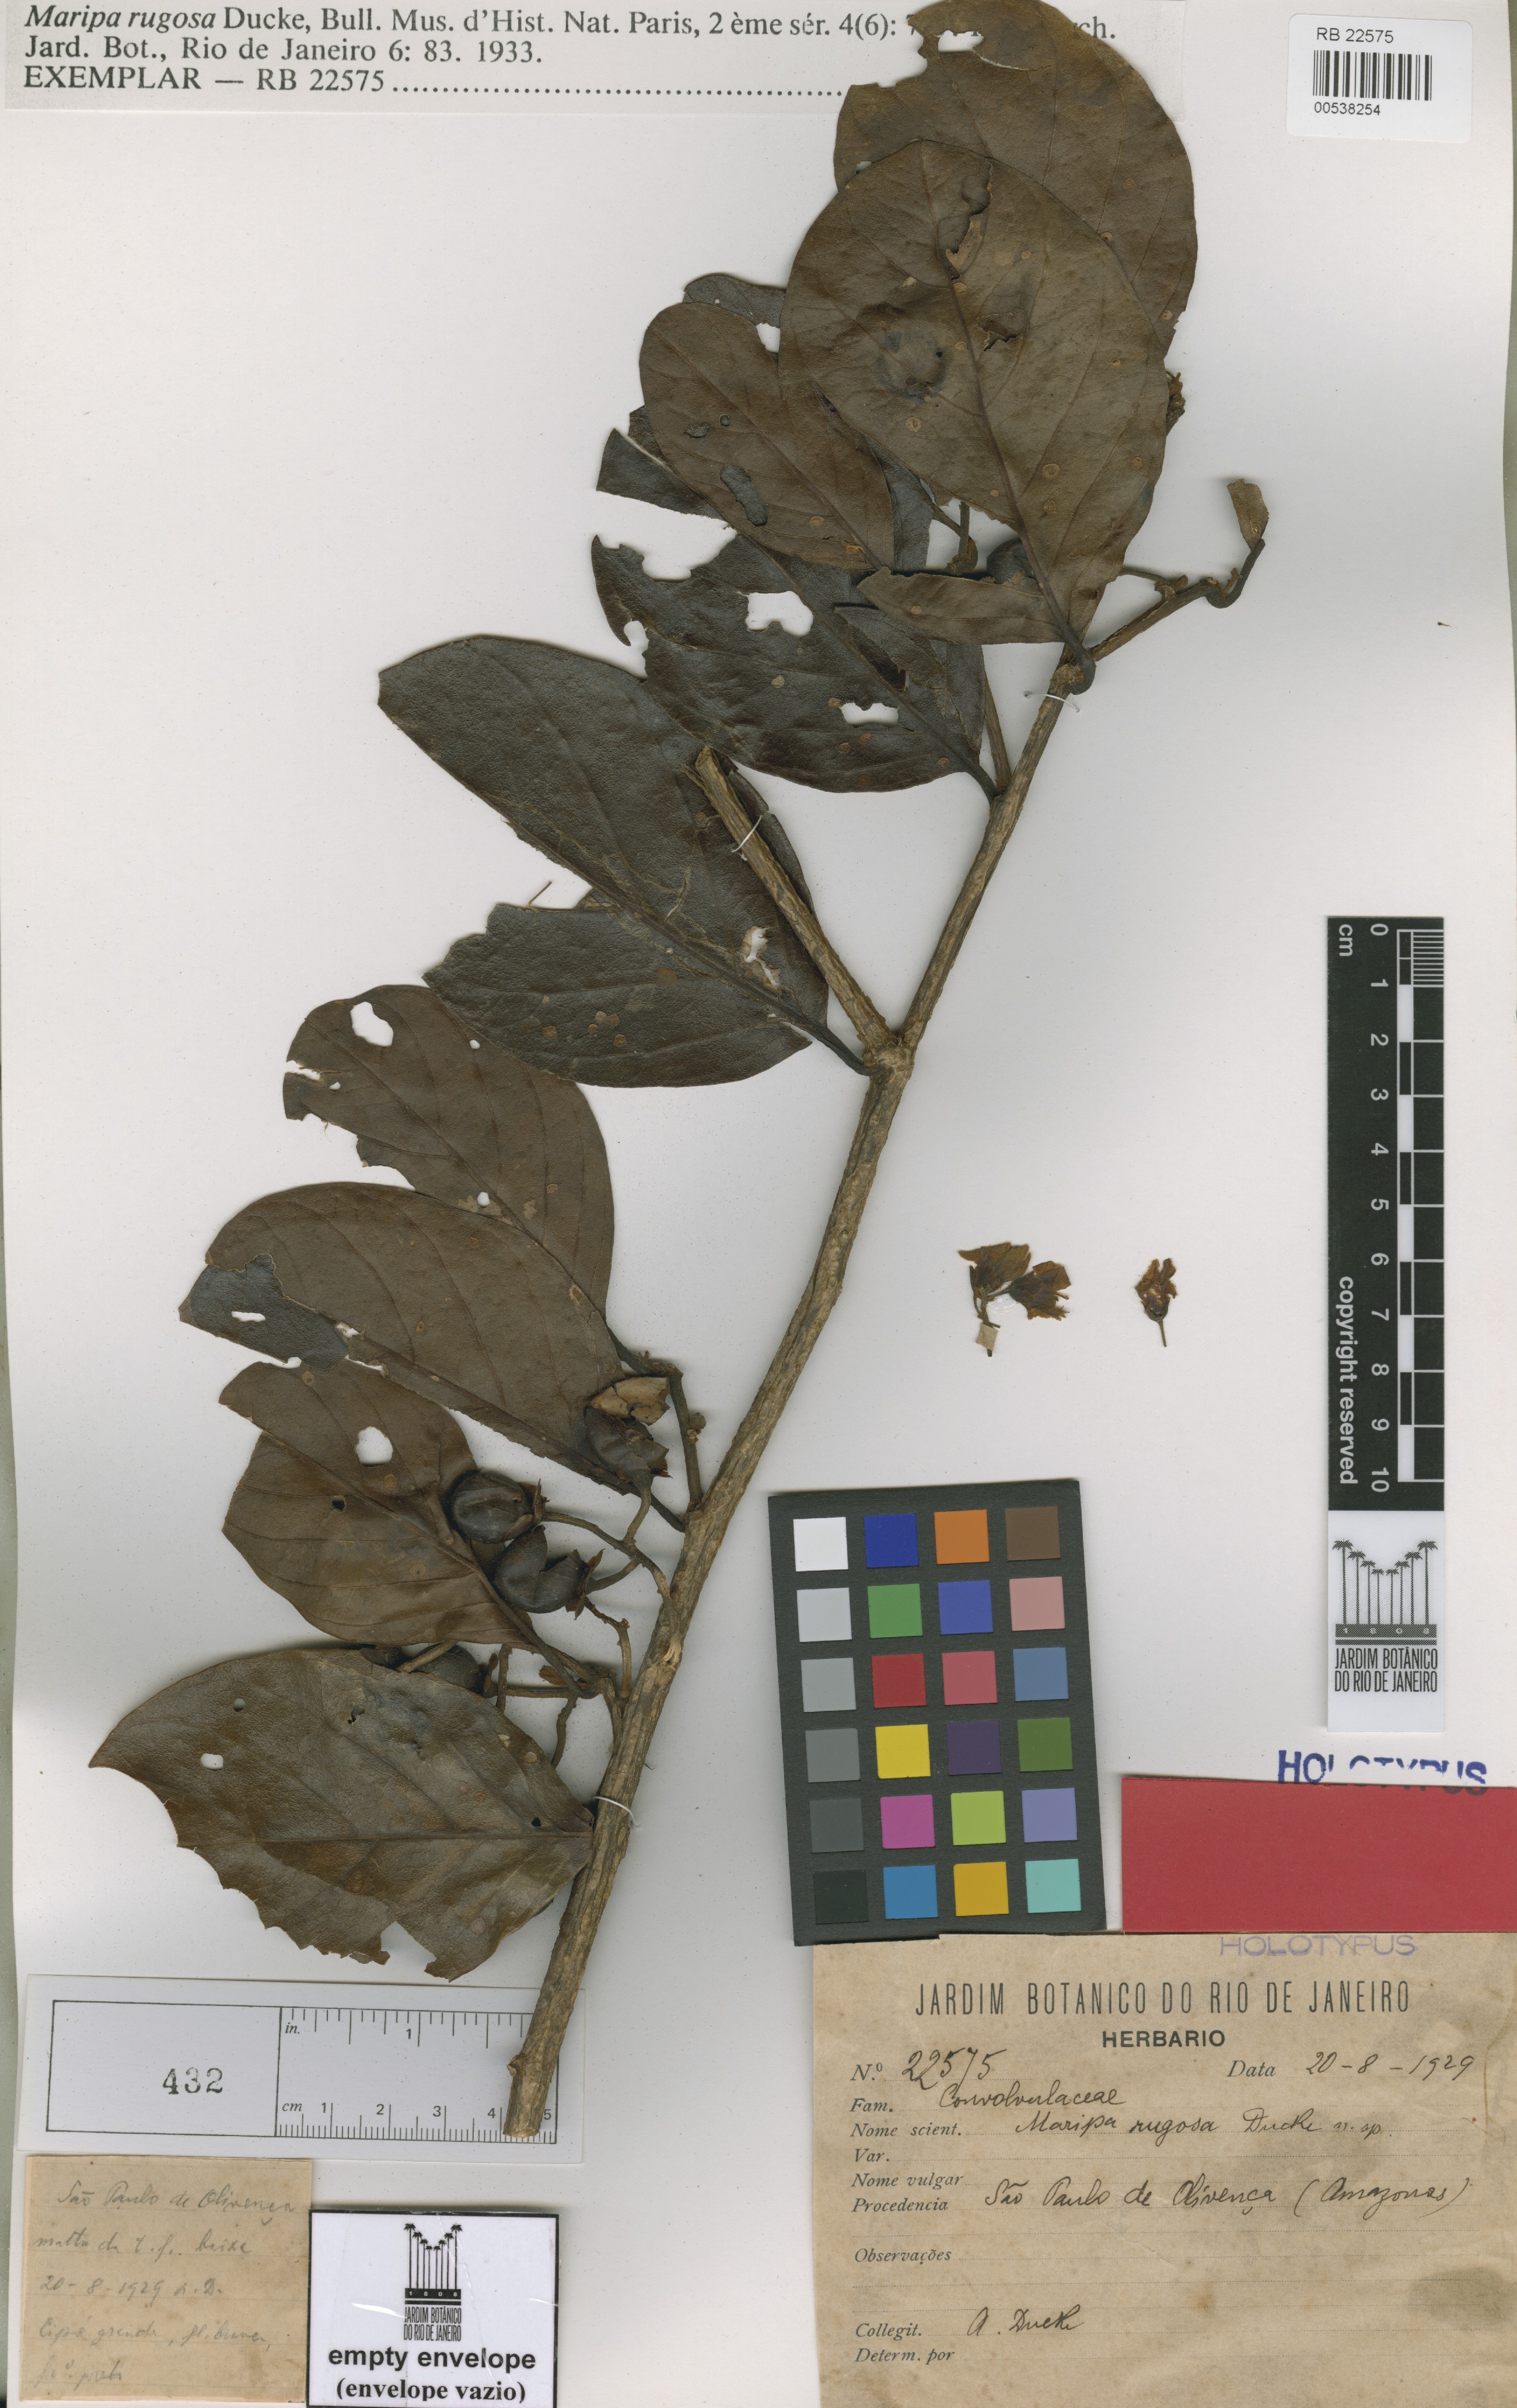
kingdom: Plantae
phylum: Tracheophyta
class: Magnoliopsida
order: Solanales
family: Convolvulaceae
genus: Maripa
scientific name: Maripa reticulata
